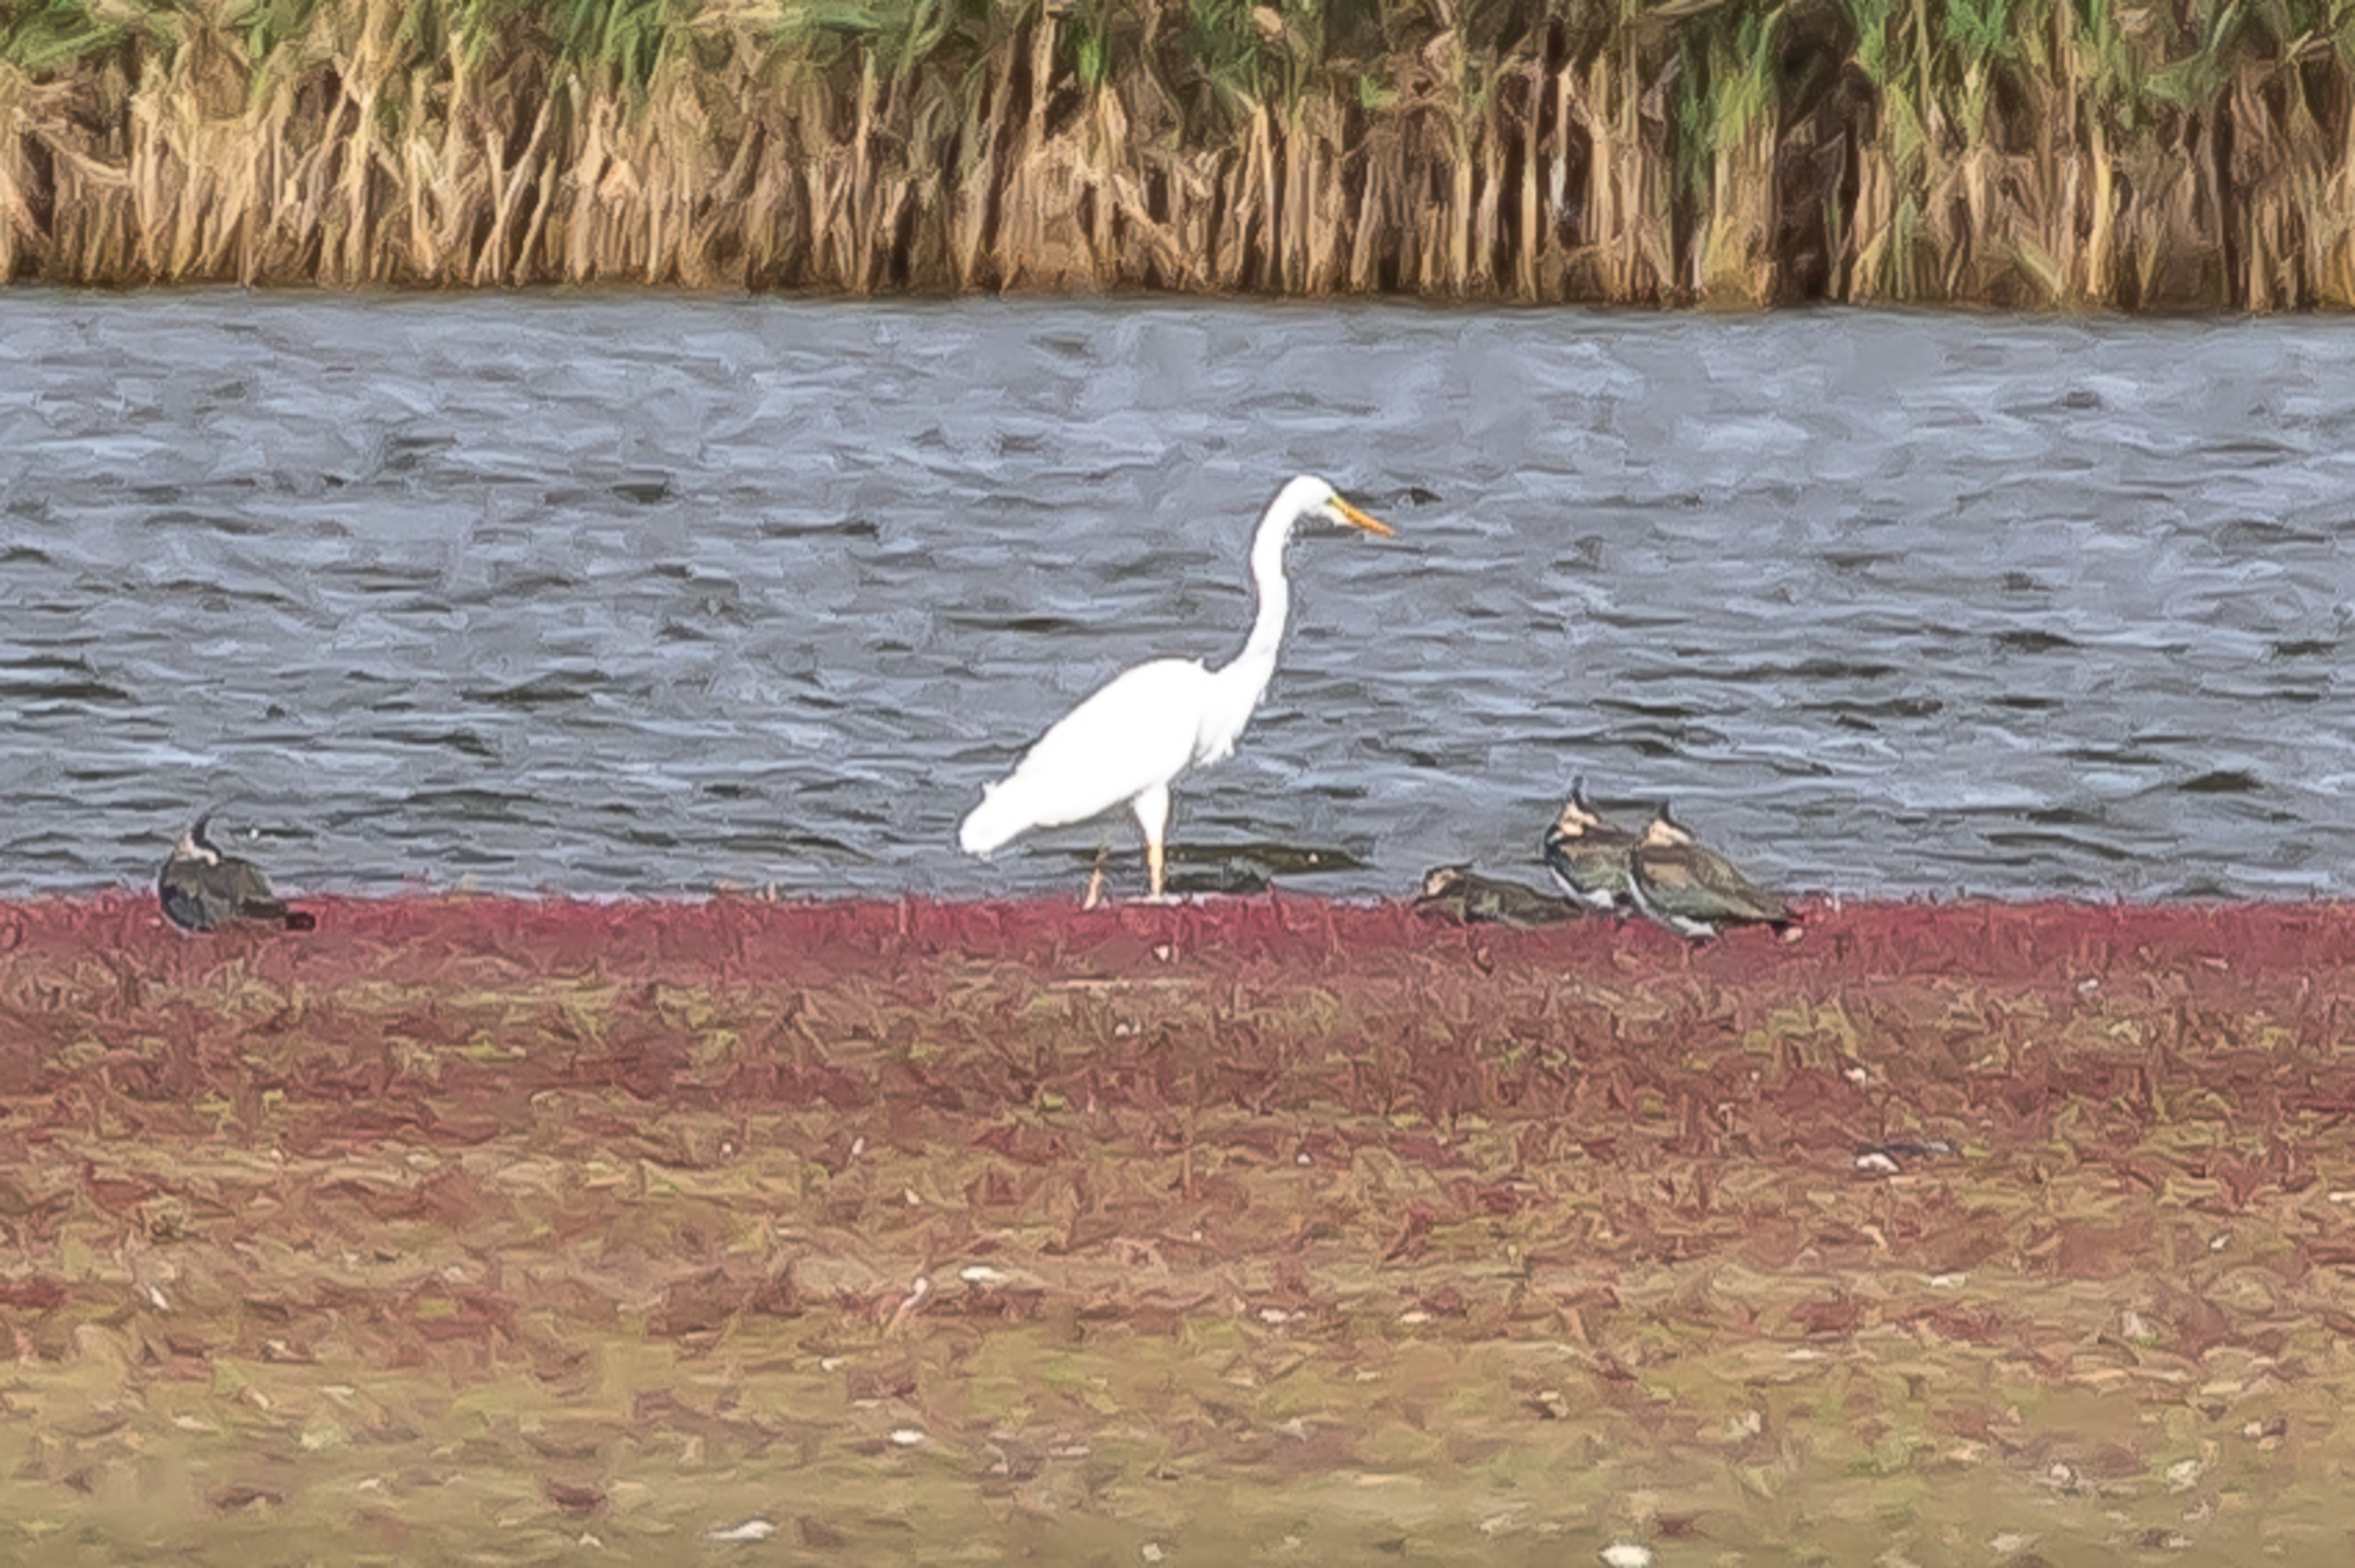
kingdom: Animalia
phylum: Chordata
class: Aves
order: Pelecaniformes
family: Ardeidae
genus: Ardea
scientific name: Ardea alba
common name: Sølvhejre
